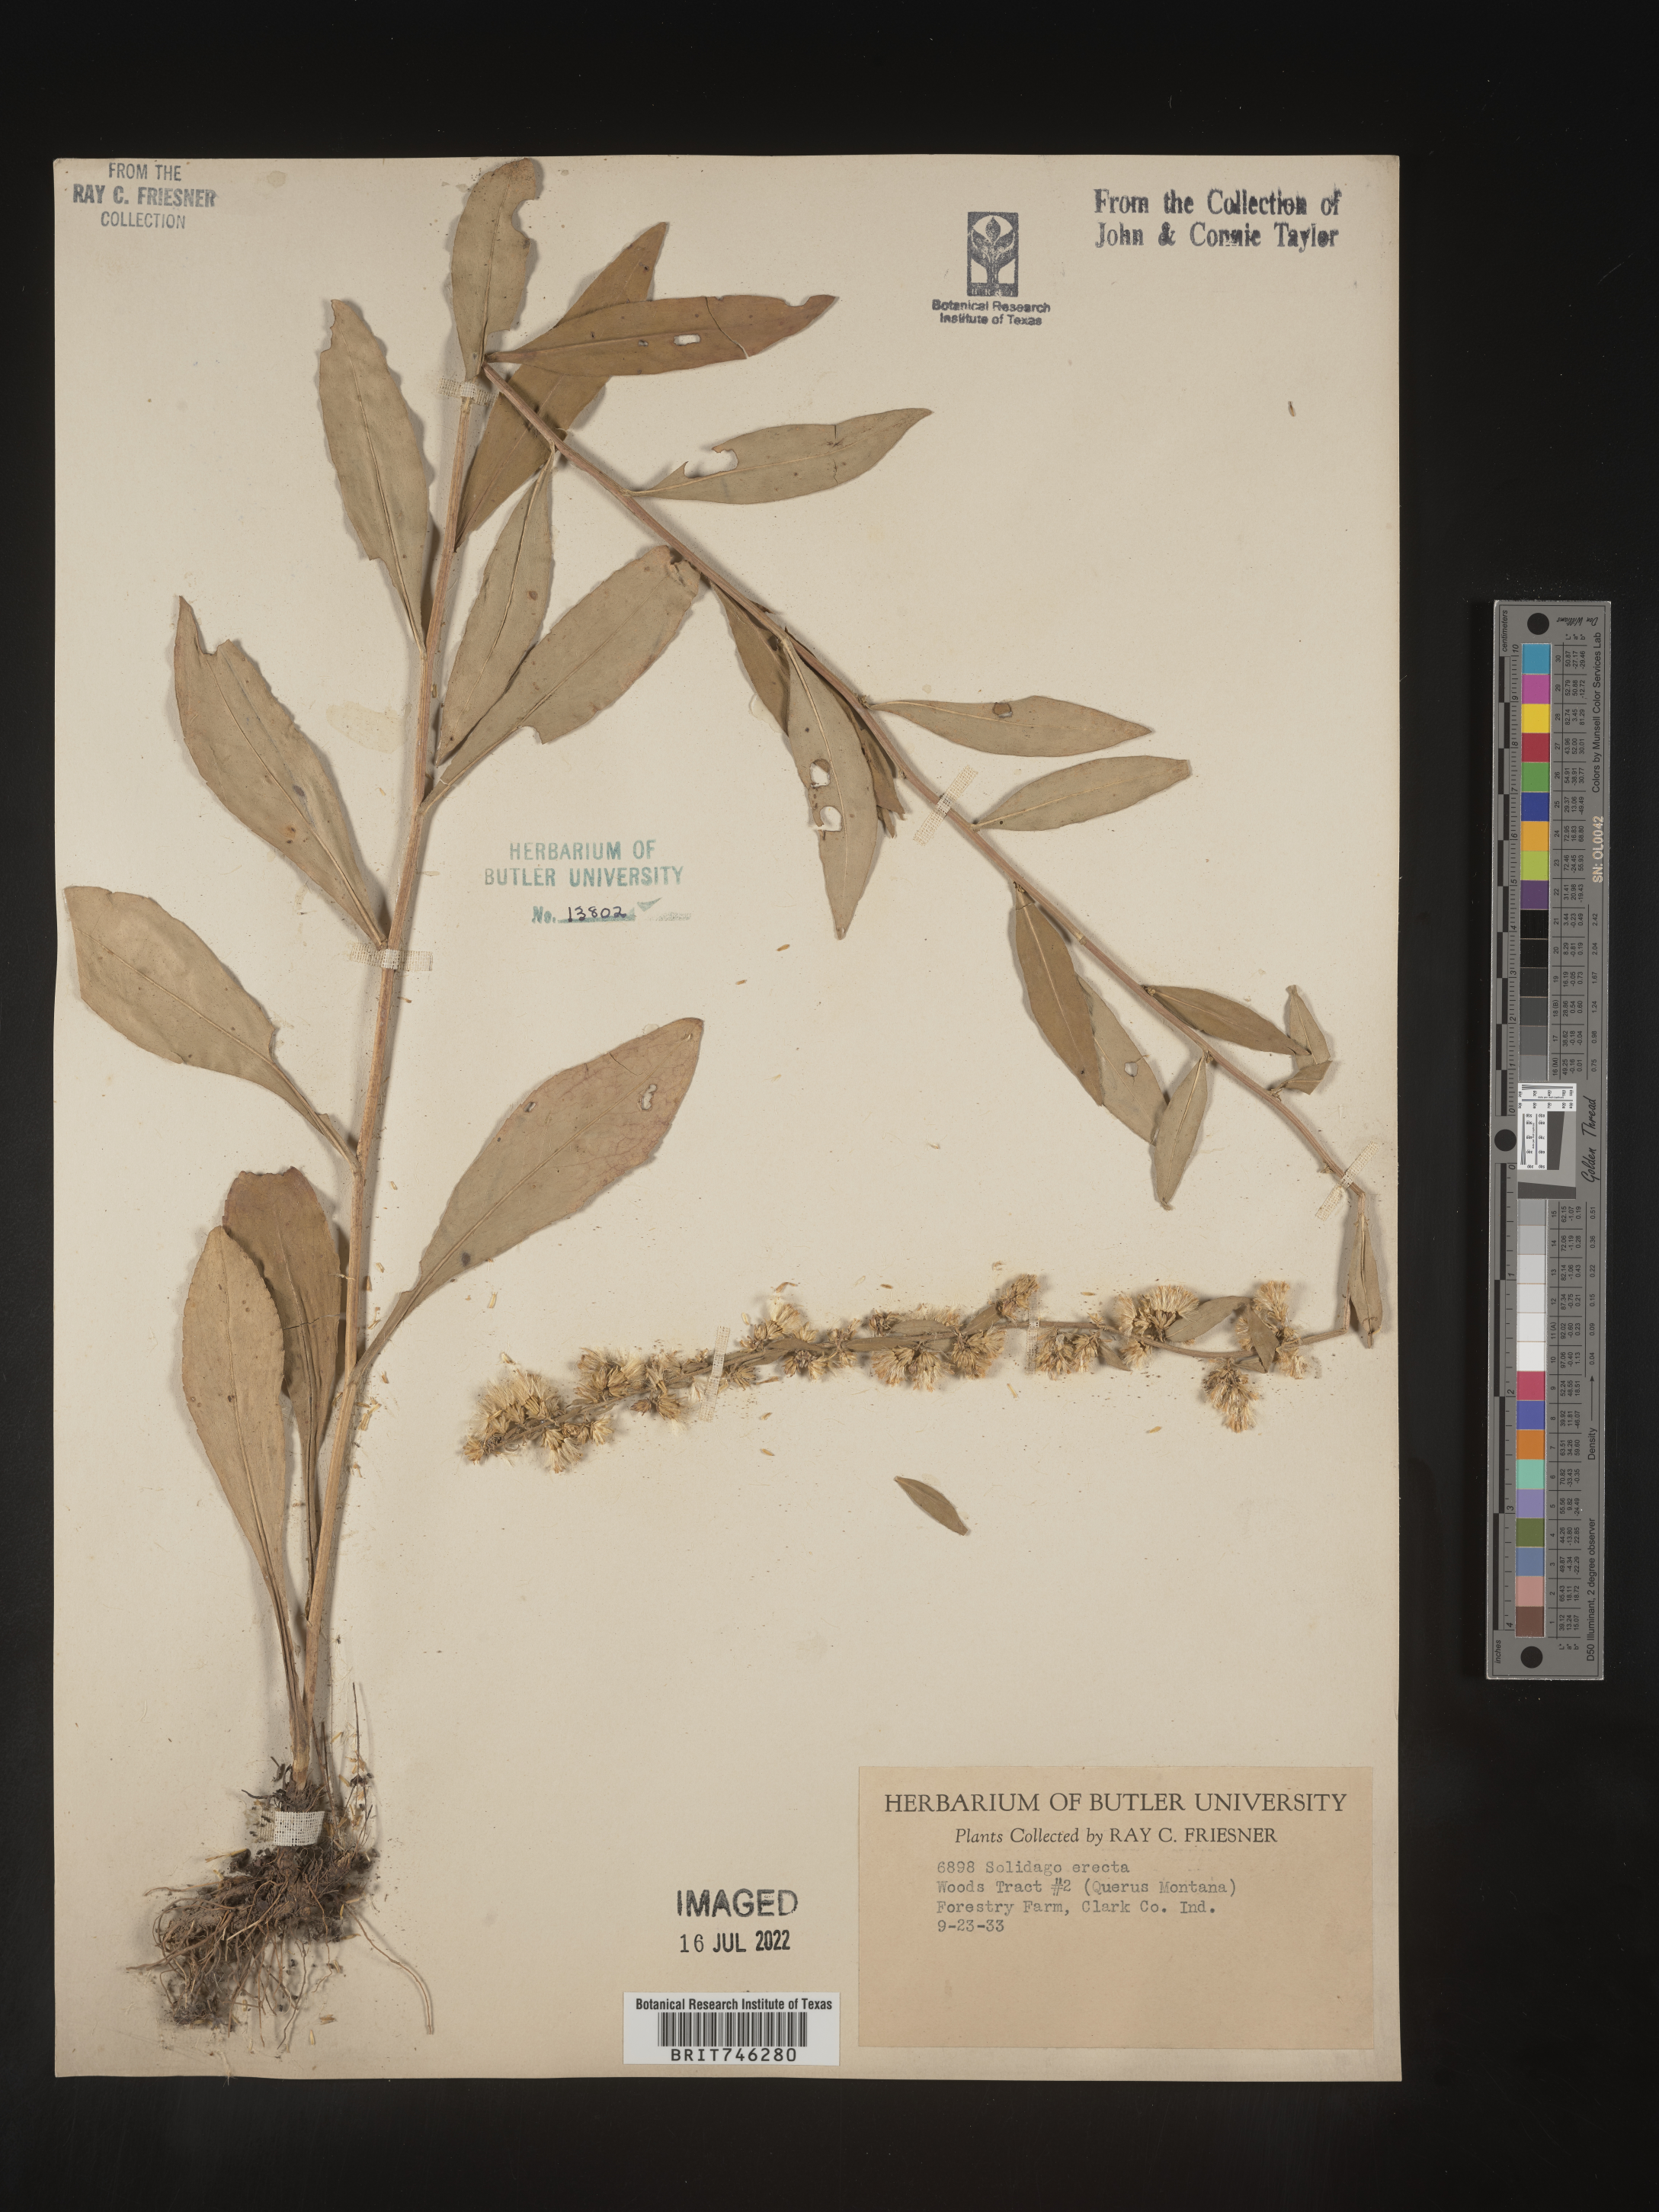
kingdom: Plantae
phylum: Tracheophyta
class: Magnoliopsida
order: Asterales
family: Asteraceae
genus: Solidago
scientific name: Solidago erecta
